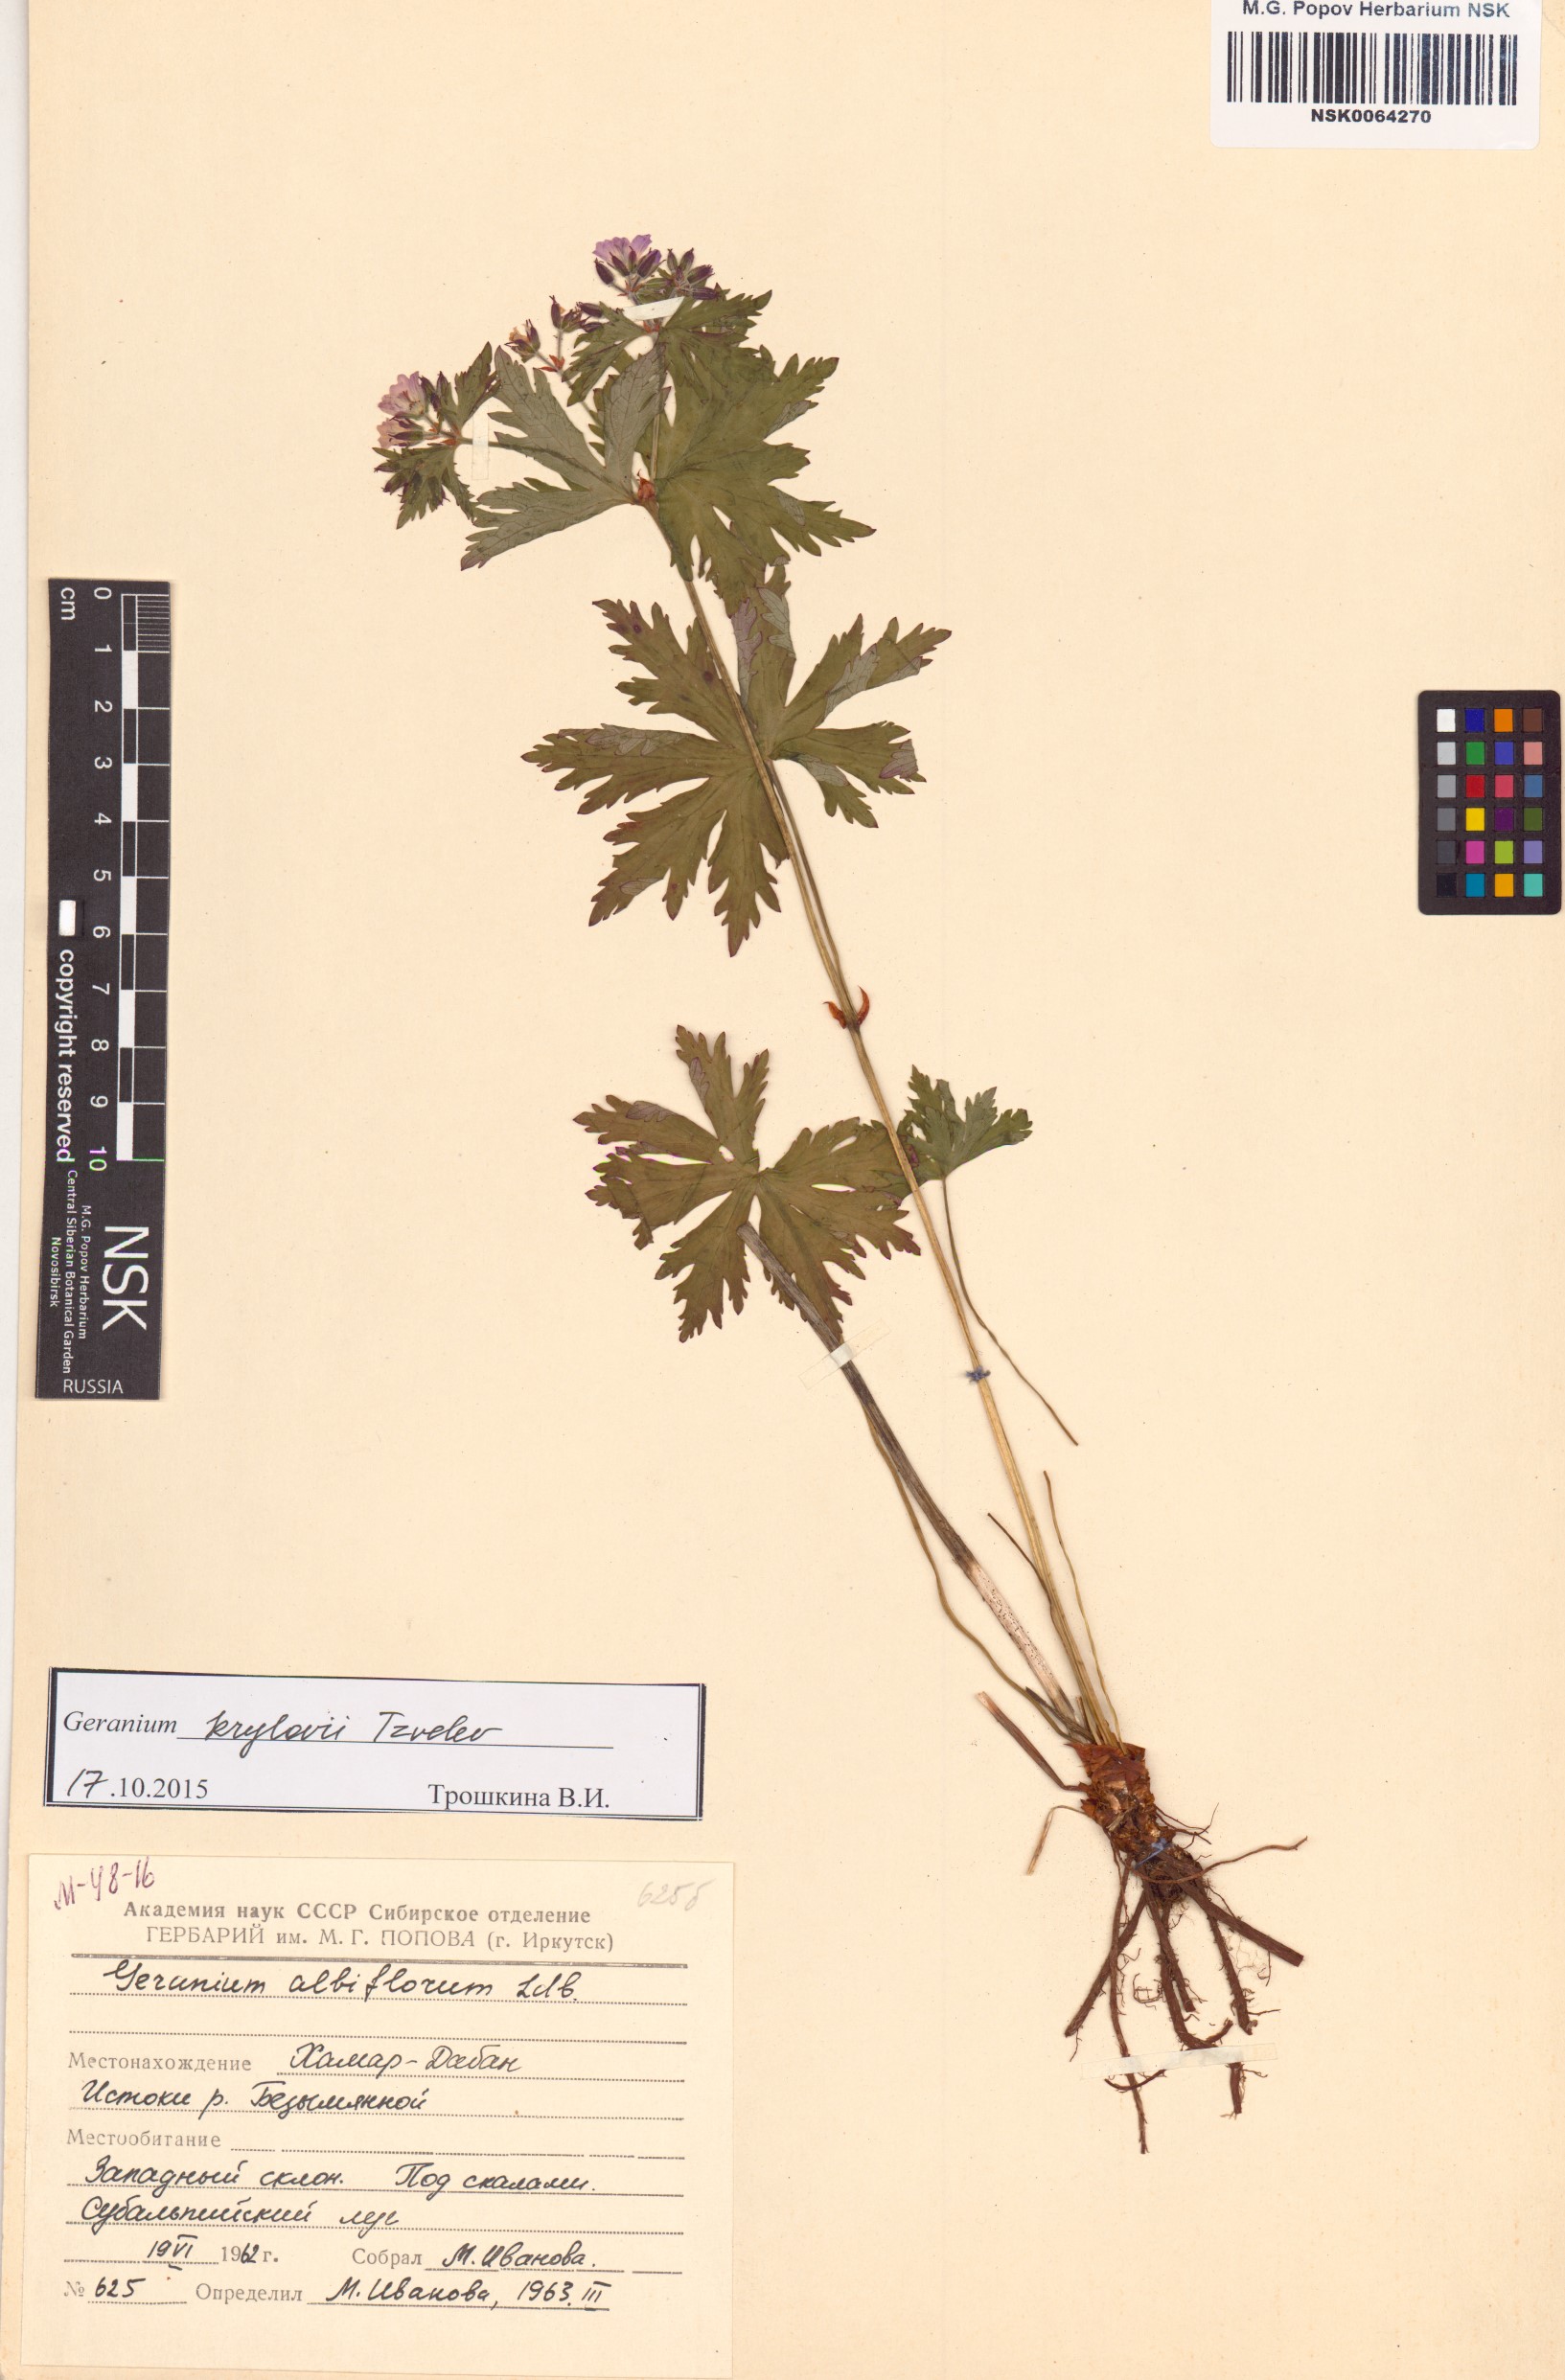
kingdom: Plantae
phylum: Tracheophyta
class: Magnoliopsida
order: Geraniales
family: Geraniaceae
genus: Geranium
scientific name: Geranium sylvaticum
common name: Wood crane's-bill
